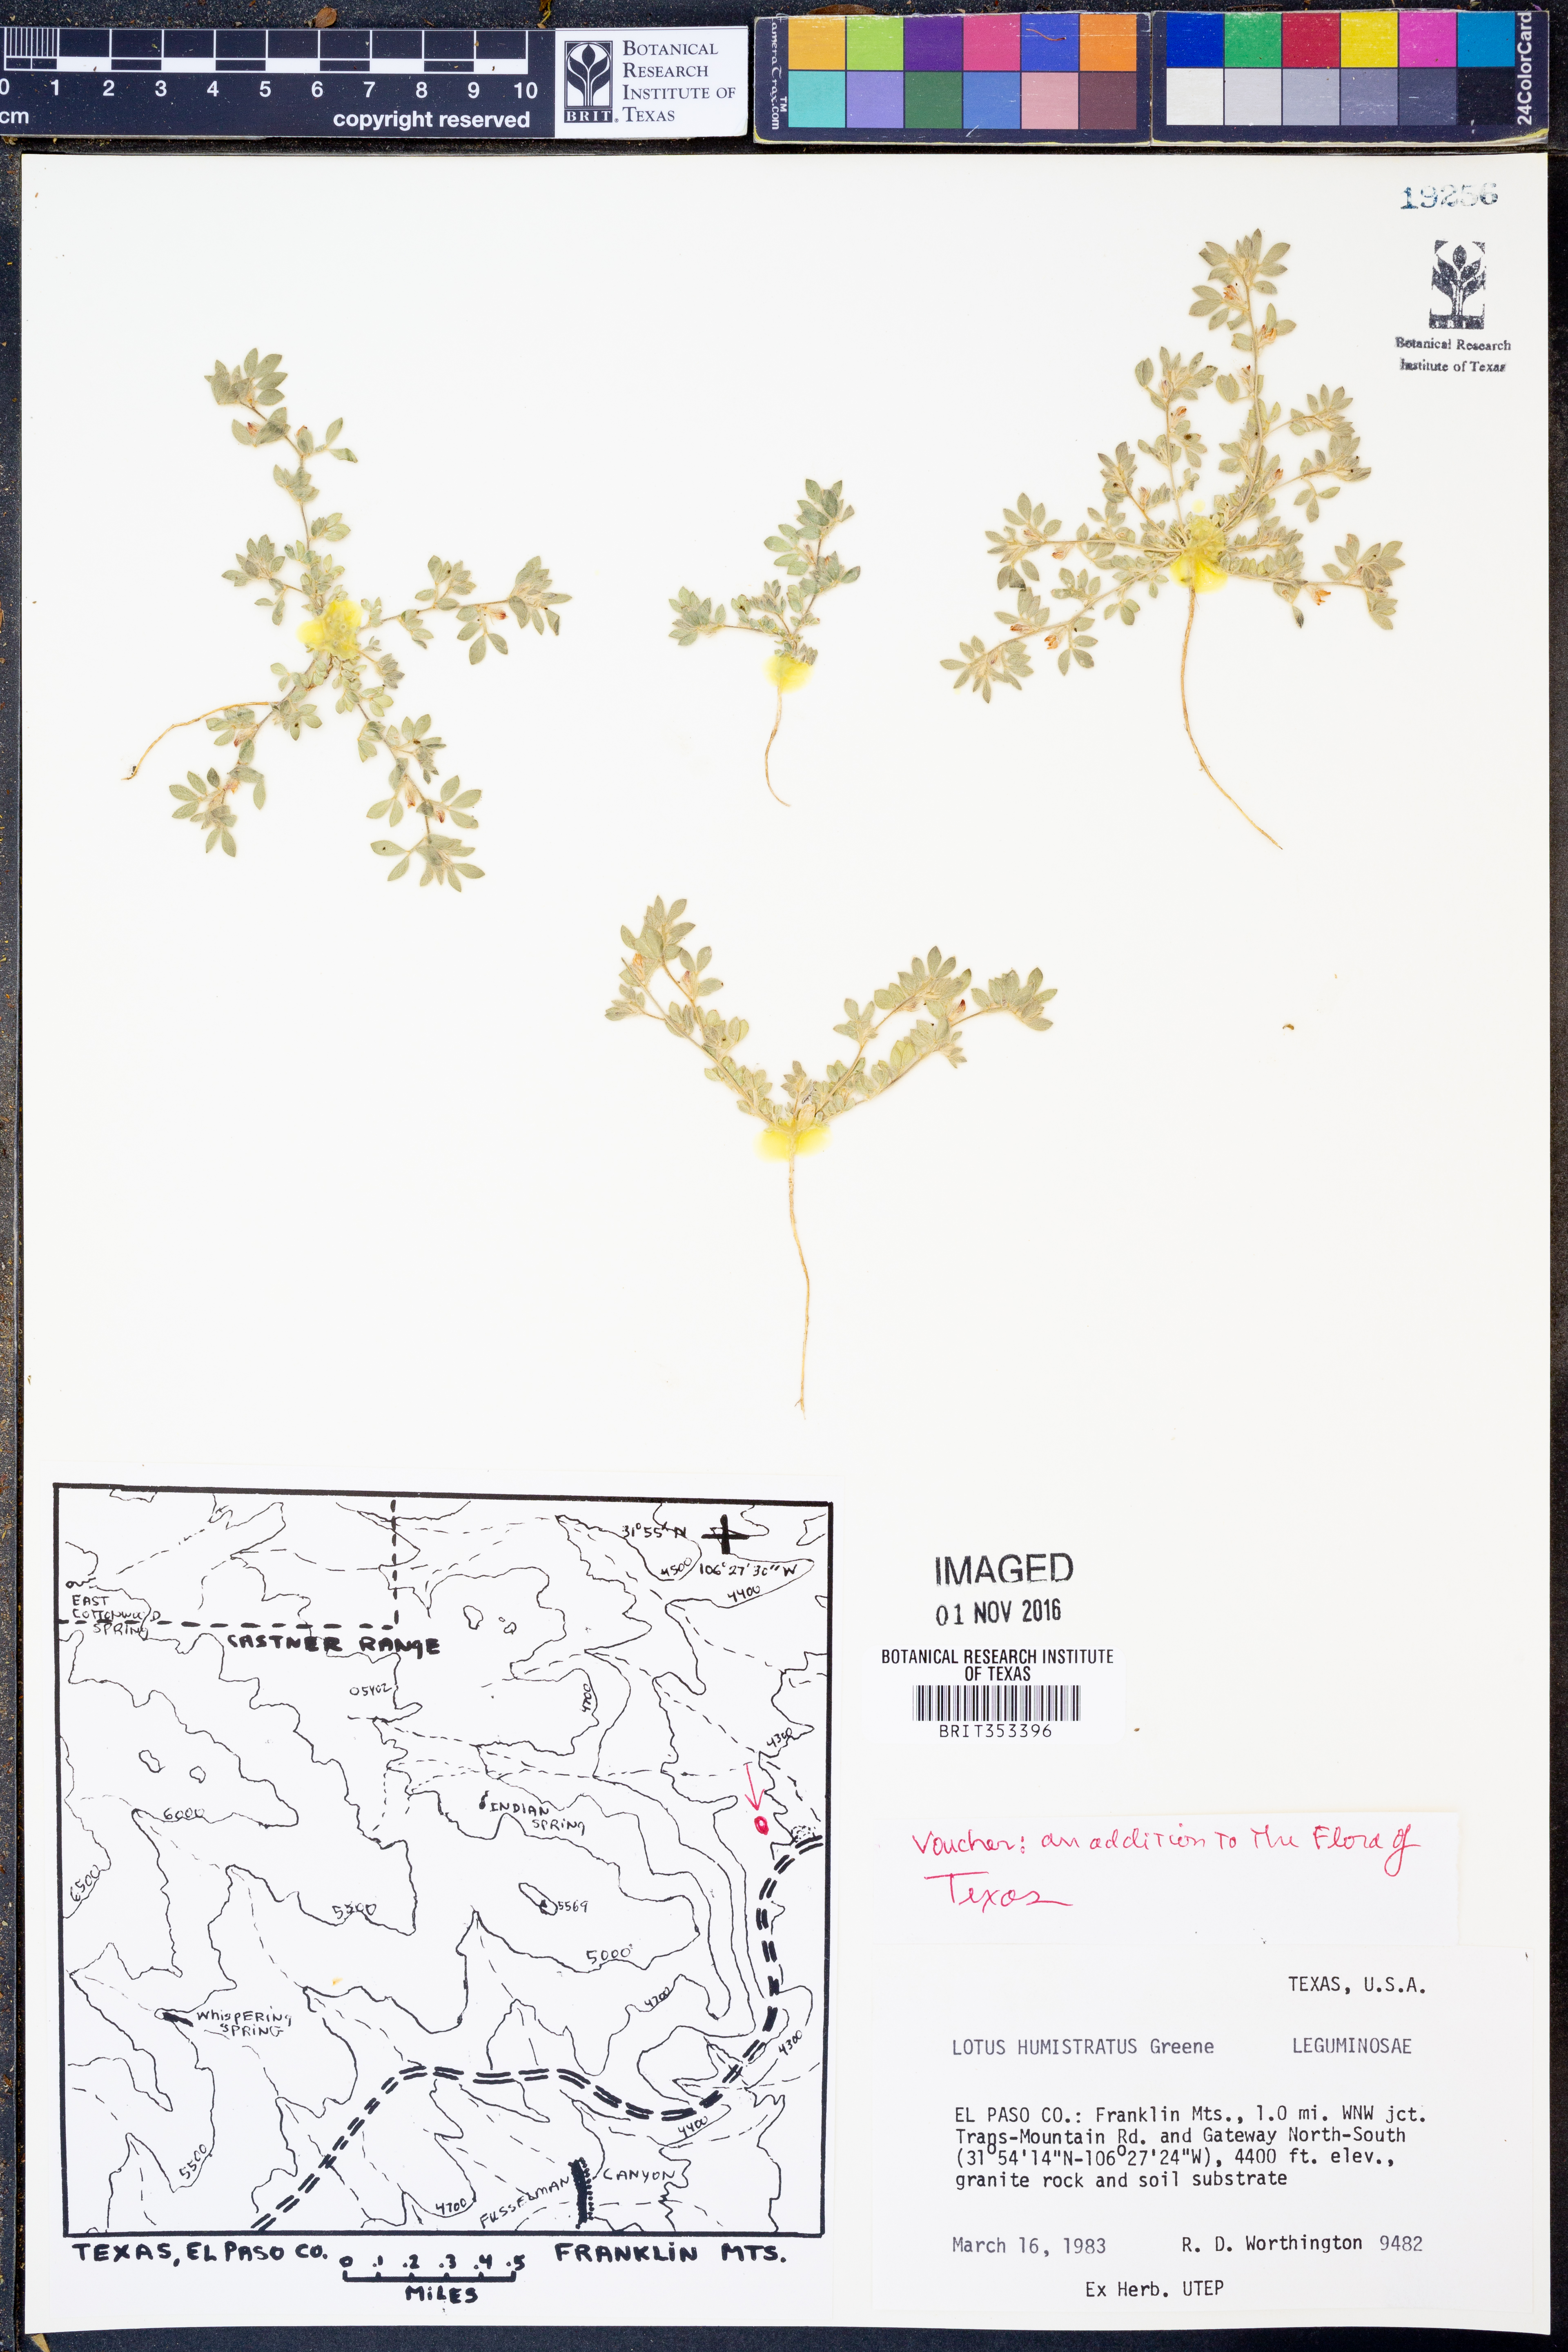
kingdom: Plantae
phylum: Tracheophyta
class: Magnoliopsida
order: Fabales
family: Fabaceae
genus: Acmispon
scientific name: Acmispon brachycarpus
